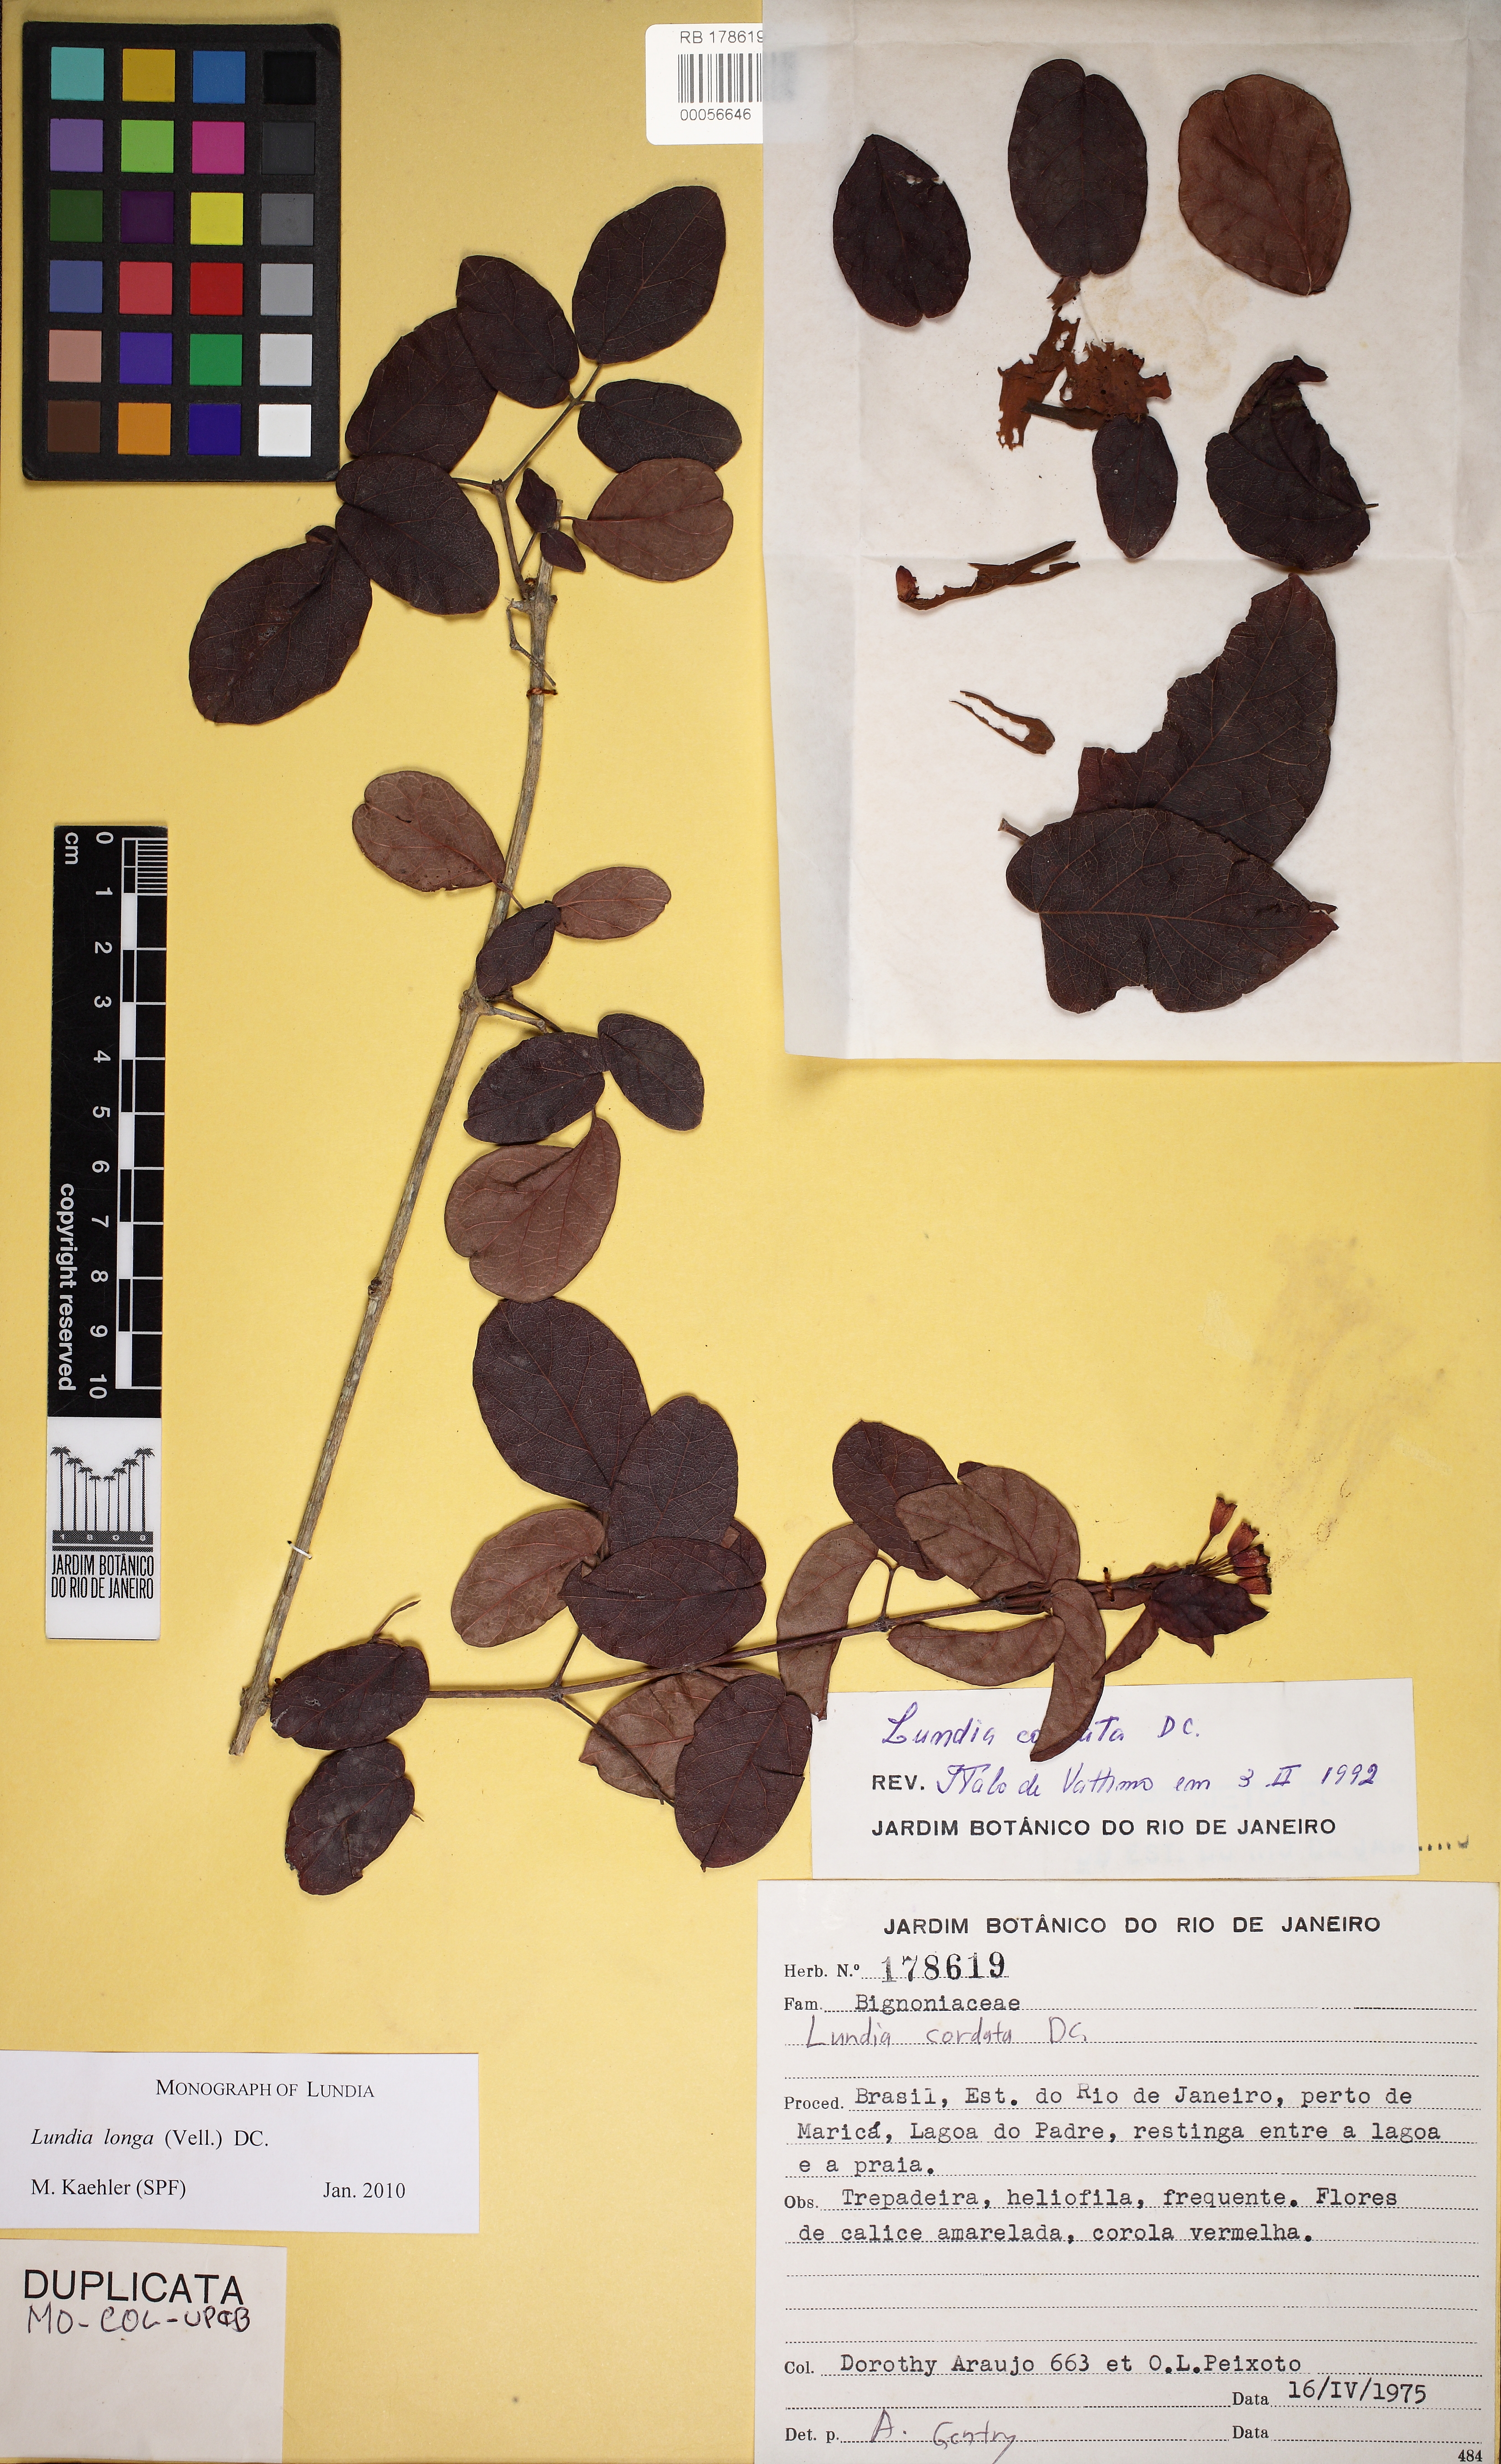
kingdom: Plantae
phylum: Tracheophyta
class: Magnoliopsida
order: Lamiales
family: Bignoniaceae
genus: Lundia
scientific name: Lundia longa
